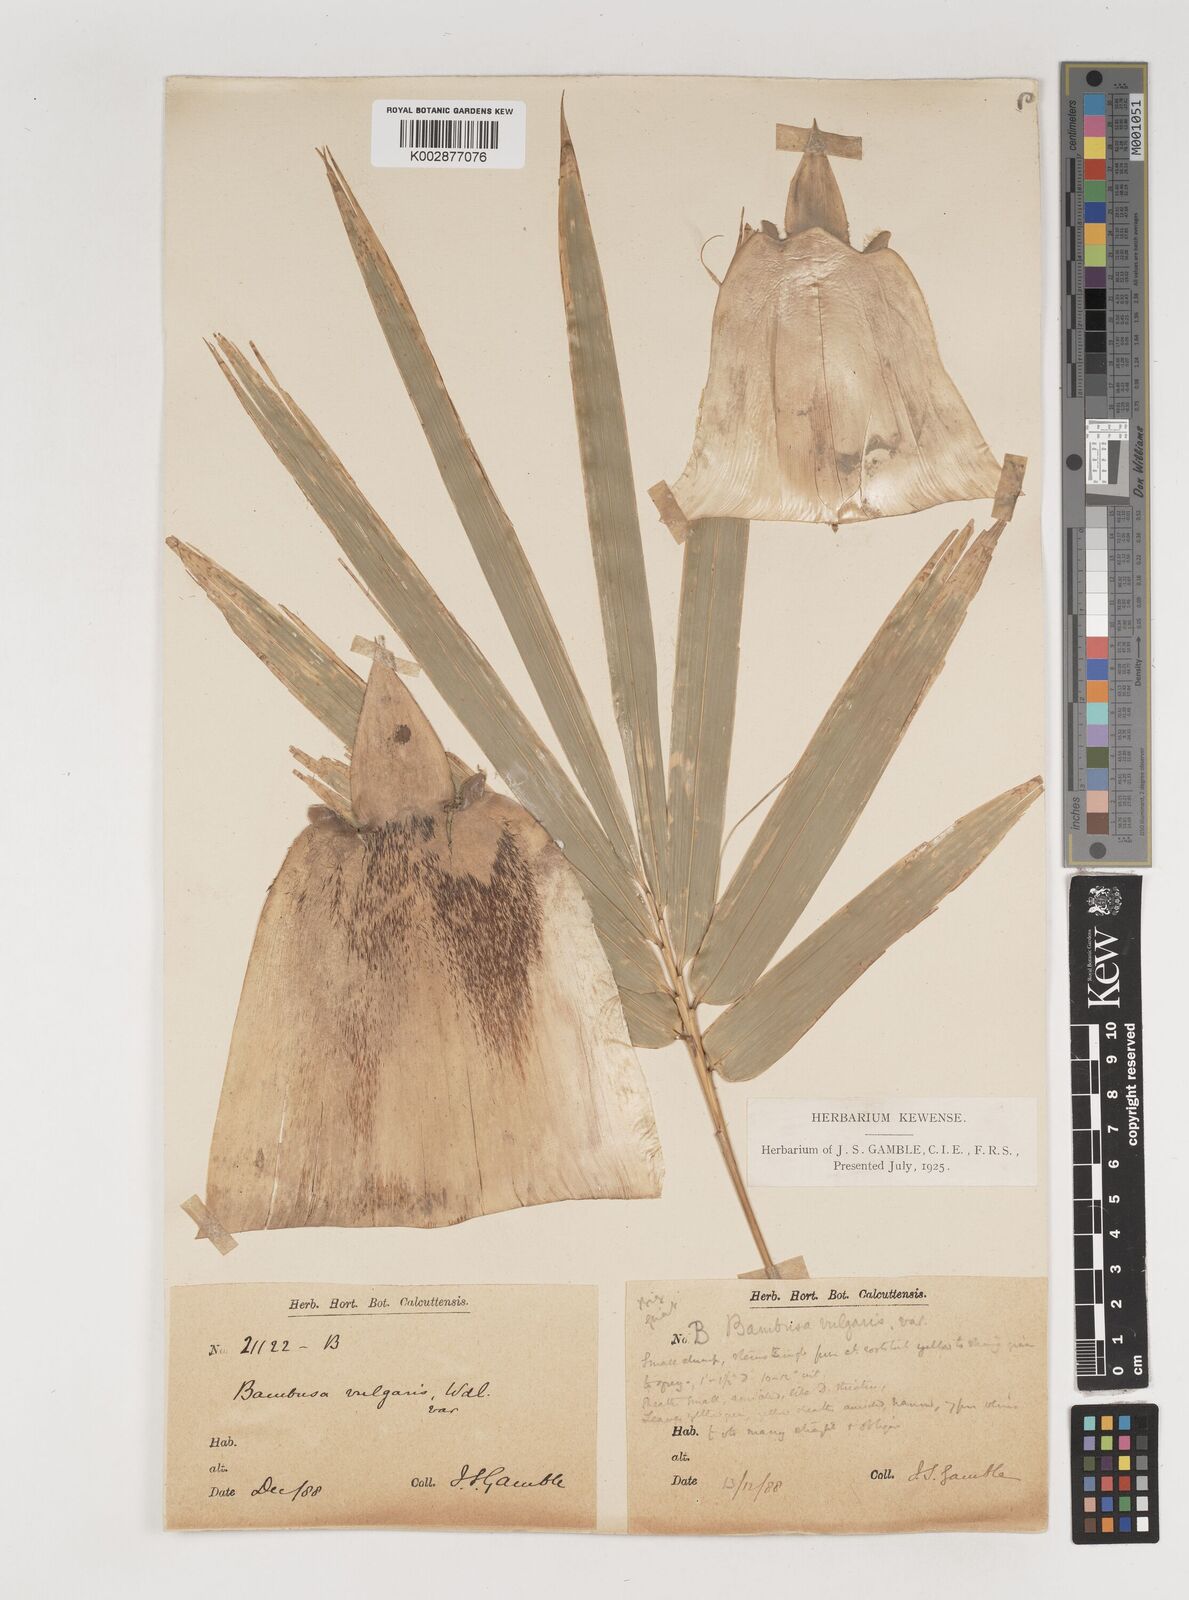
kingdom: Plantae
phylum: Tracheophyta
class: Liliopsida
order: Poales
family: Poaceae
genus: Bambusa
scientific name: Bambusa balcooa
